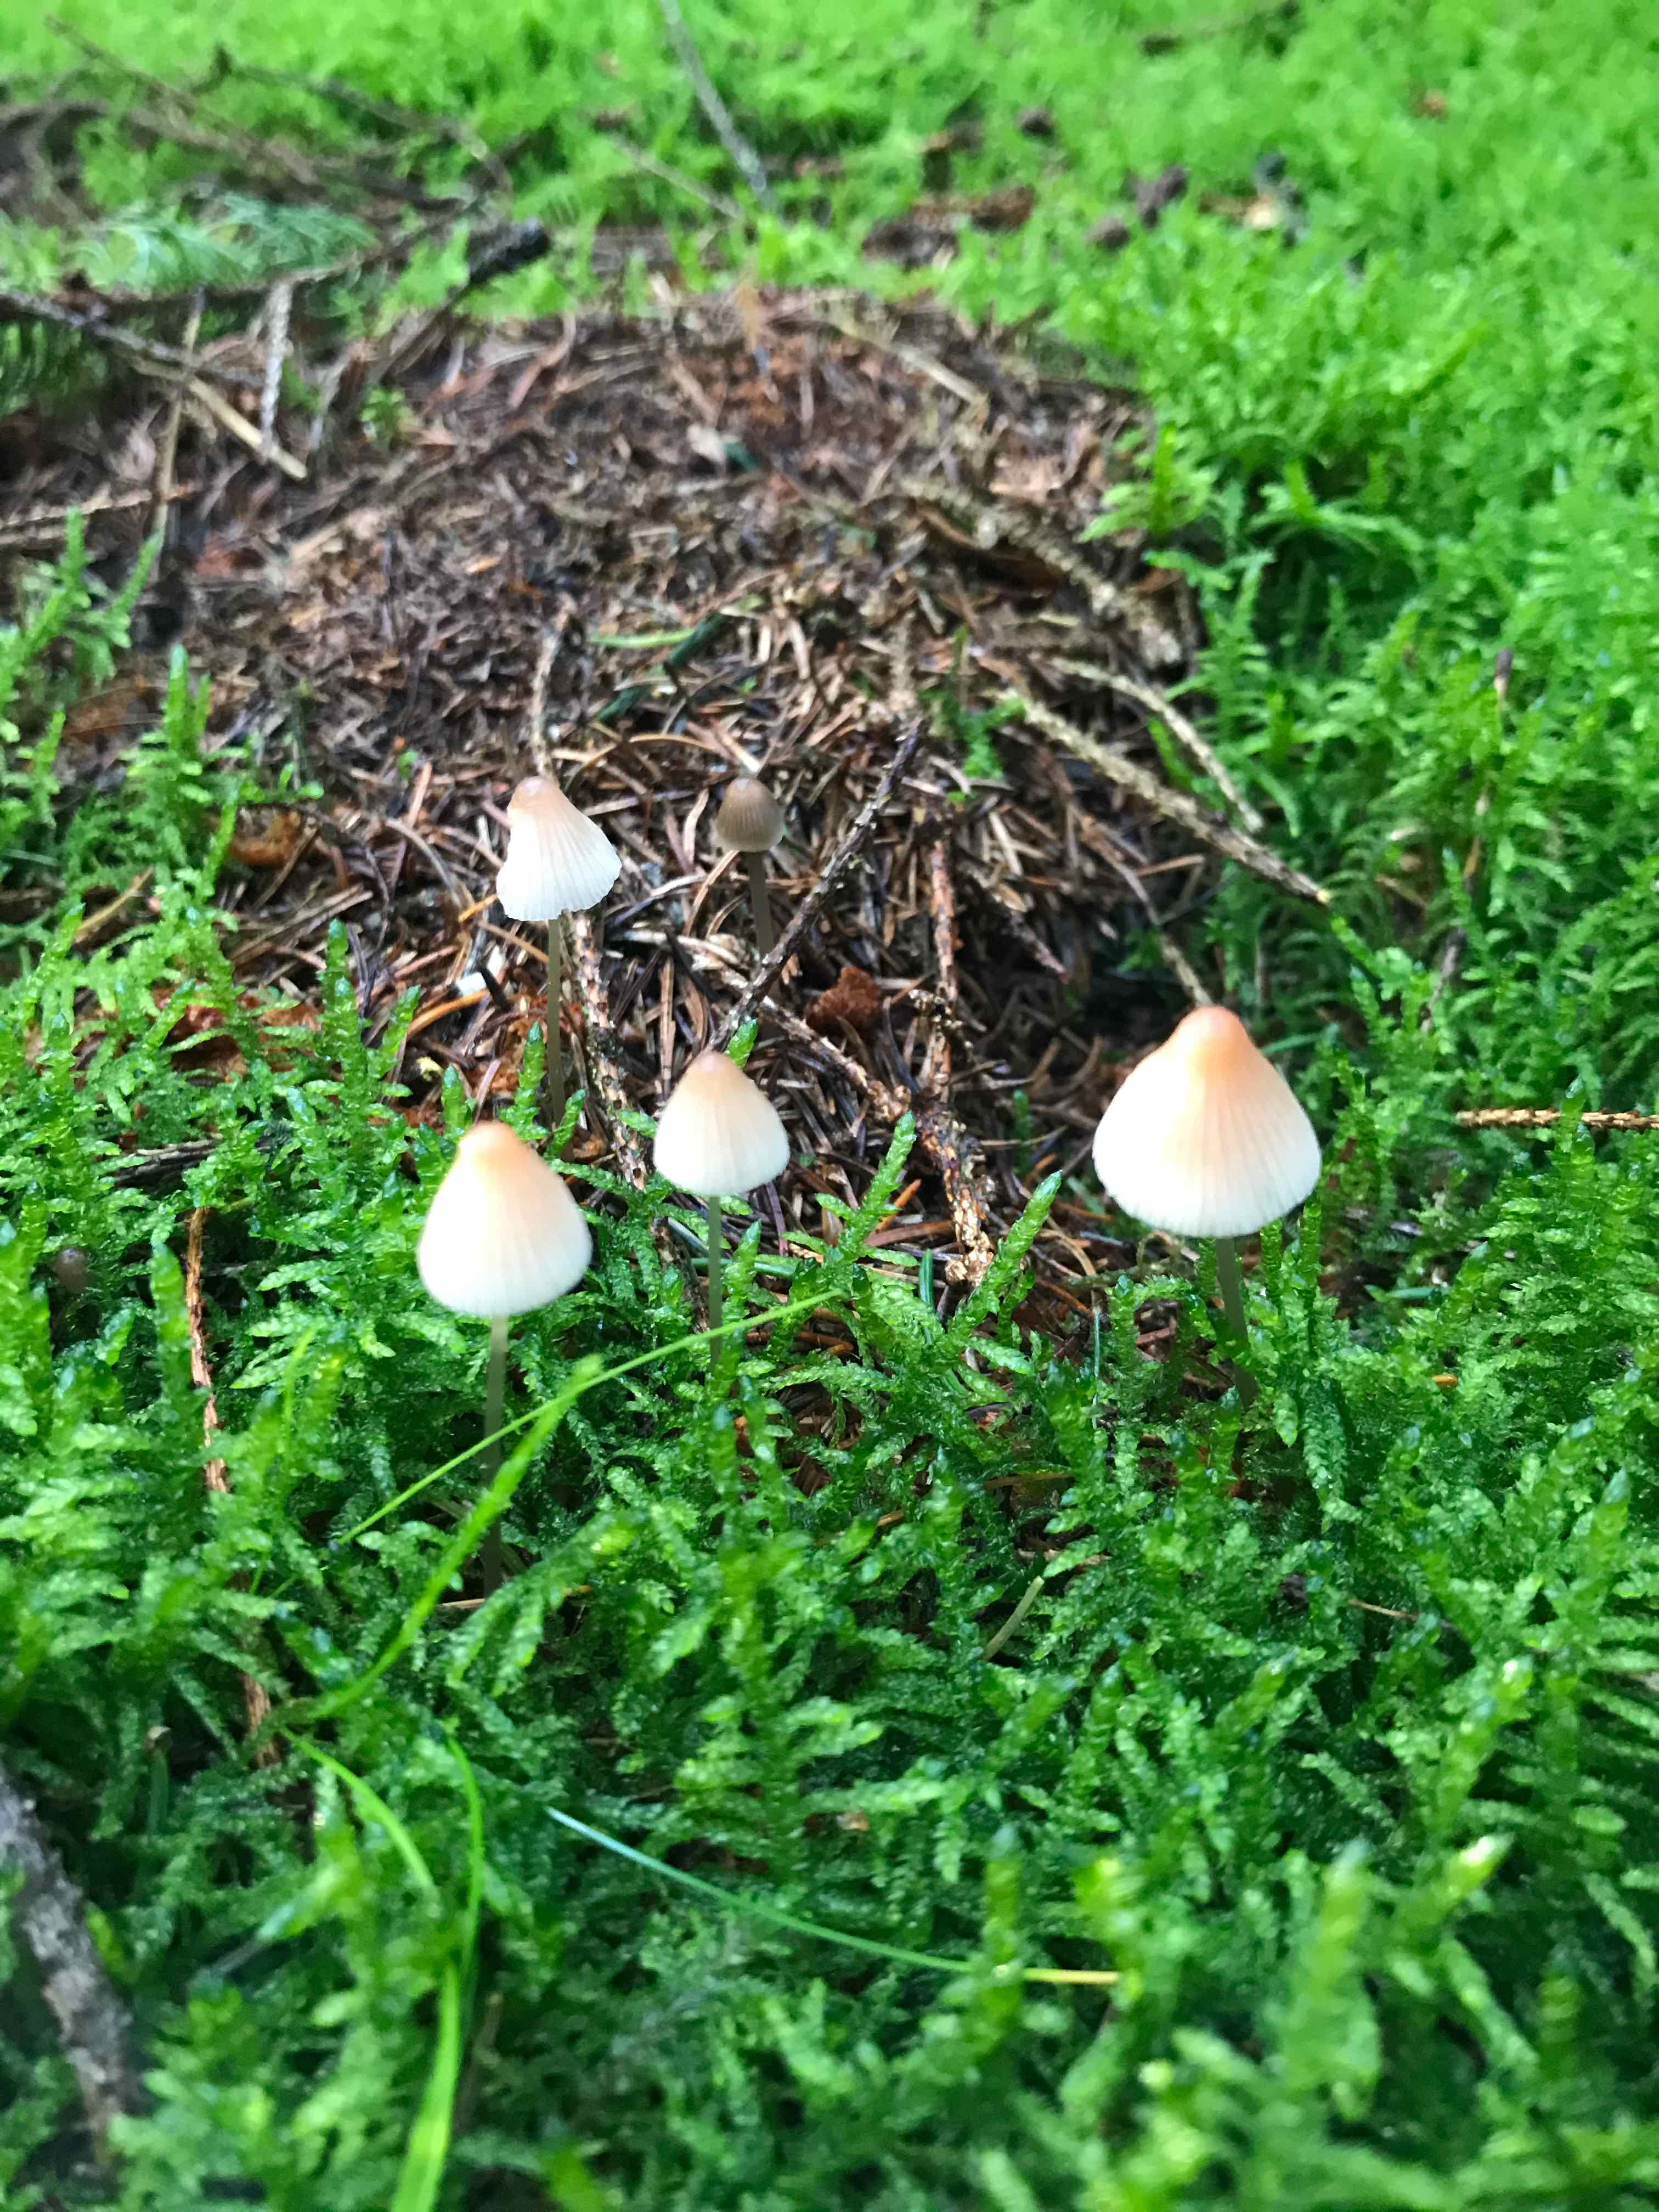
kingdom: Fungi
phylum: Basidiomycota
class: Agaricomycetes
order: Agaricales
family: Mycenaceae
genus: Mycena
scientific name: Mycena
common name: huesvamp
